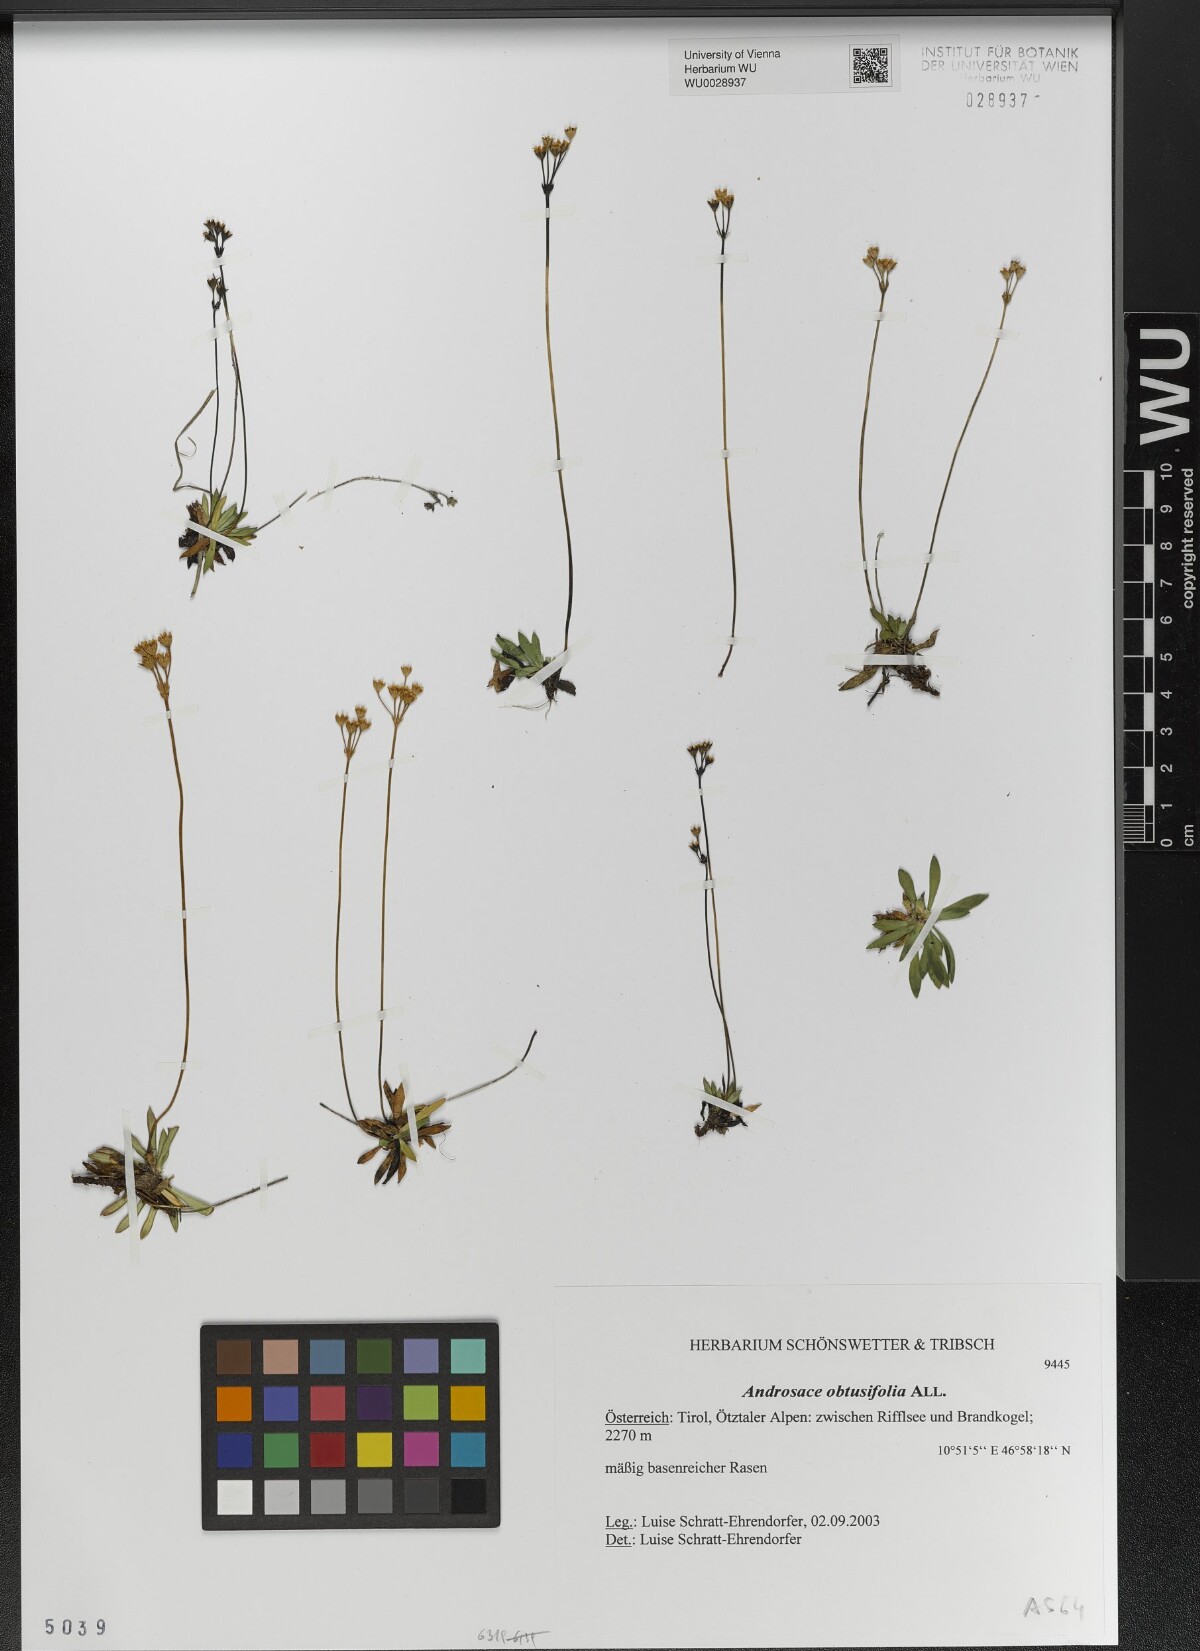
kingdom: Plantae
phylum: Tracheophyta
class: Magnoliopsida
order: Ericales
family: Primulaceae
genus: Androsace
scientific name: Androsace obtusifolia
